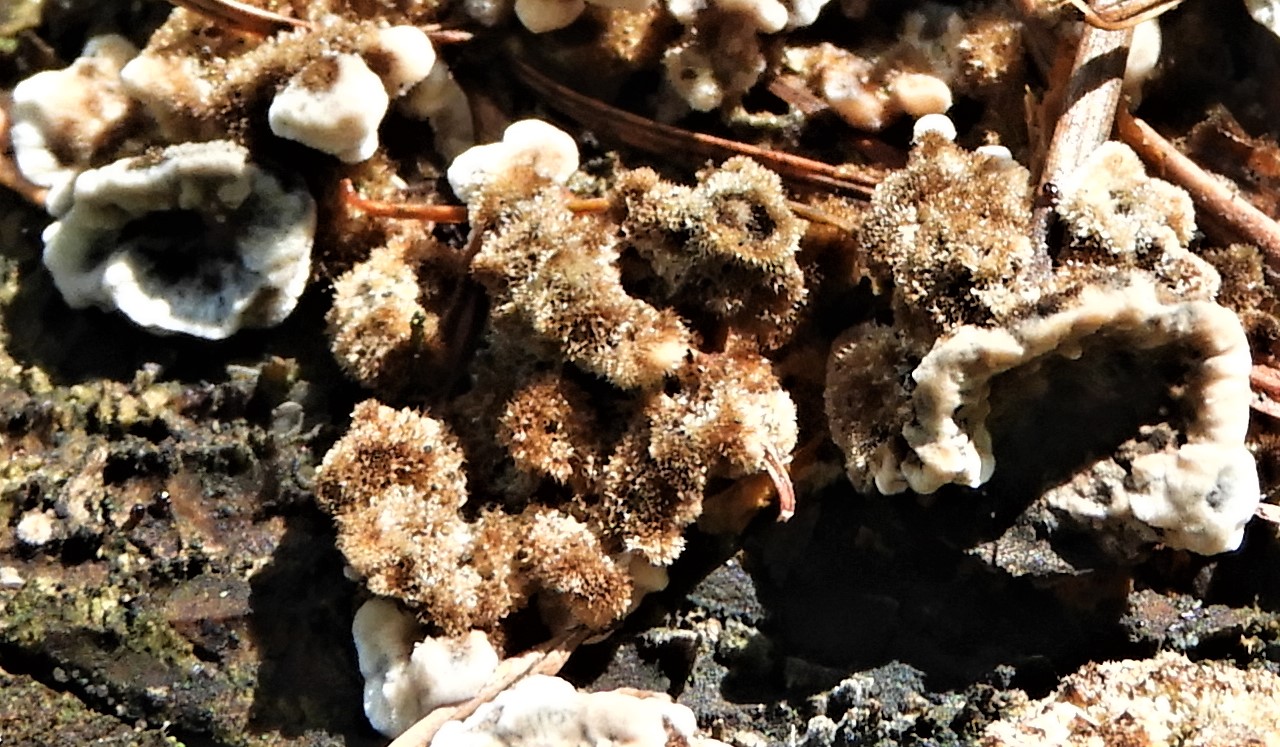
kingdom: Fungi
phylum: Basidiomycota
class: Agaricomycetes
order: Russulales
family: Stereaceae
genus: Stereum
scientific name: Stereum hirsutum
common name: håret lædersvamp
